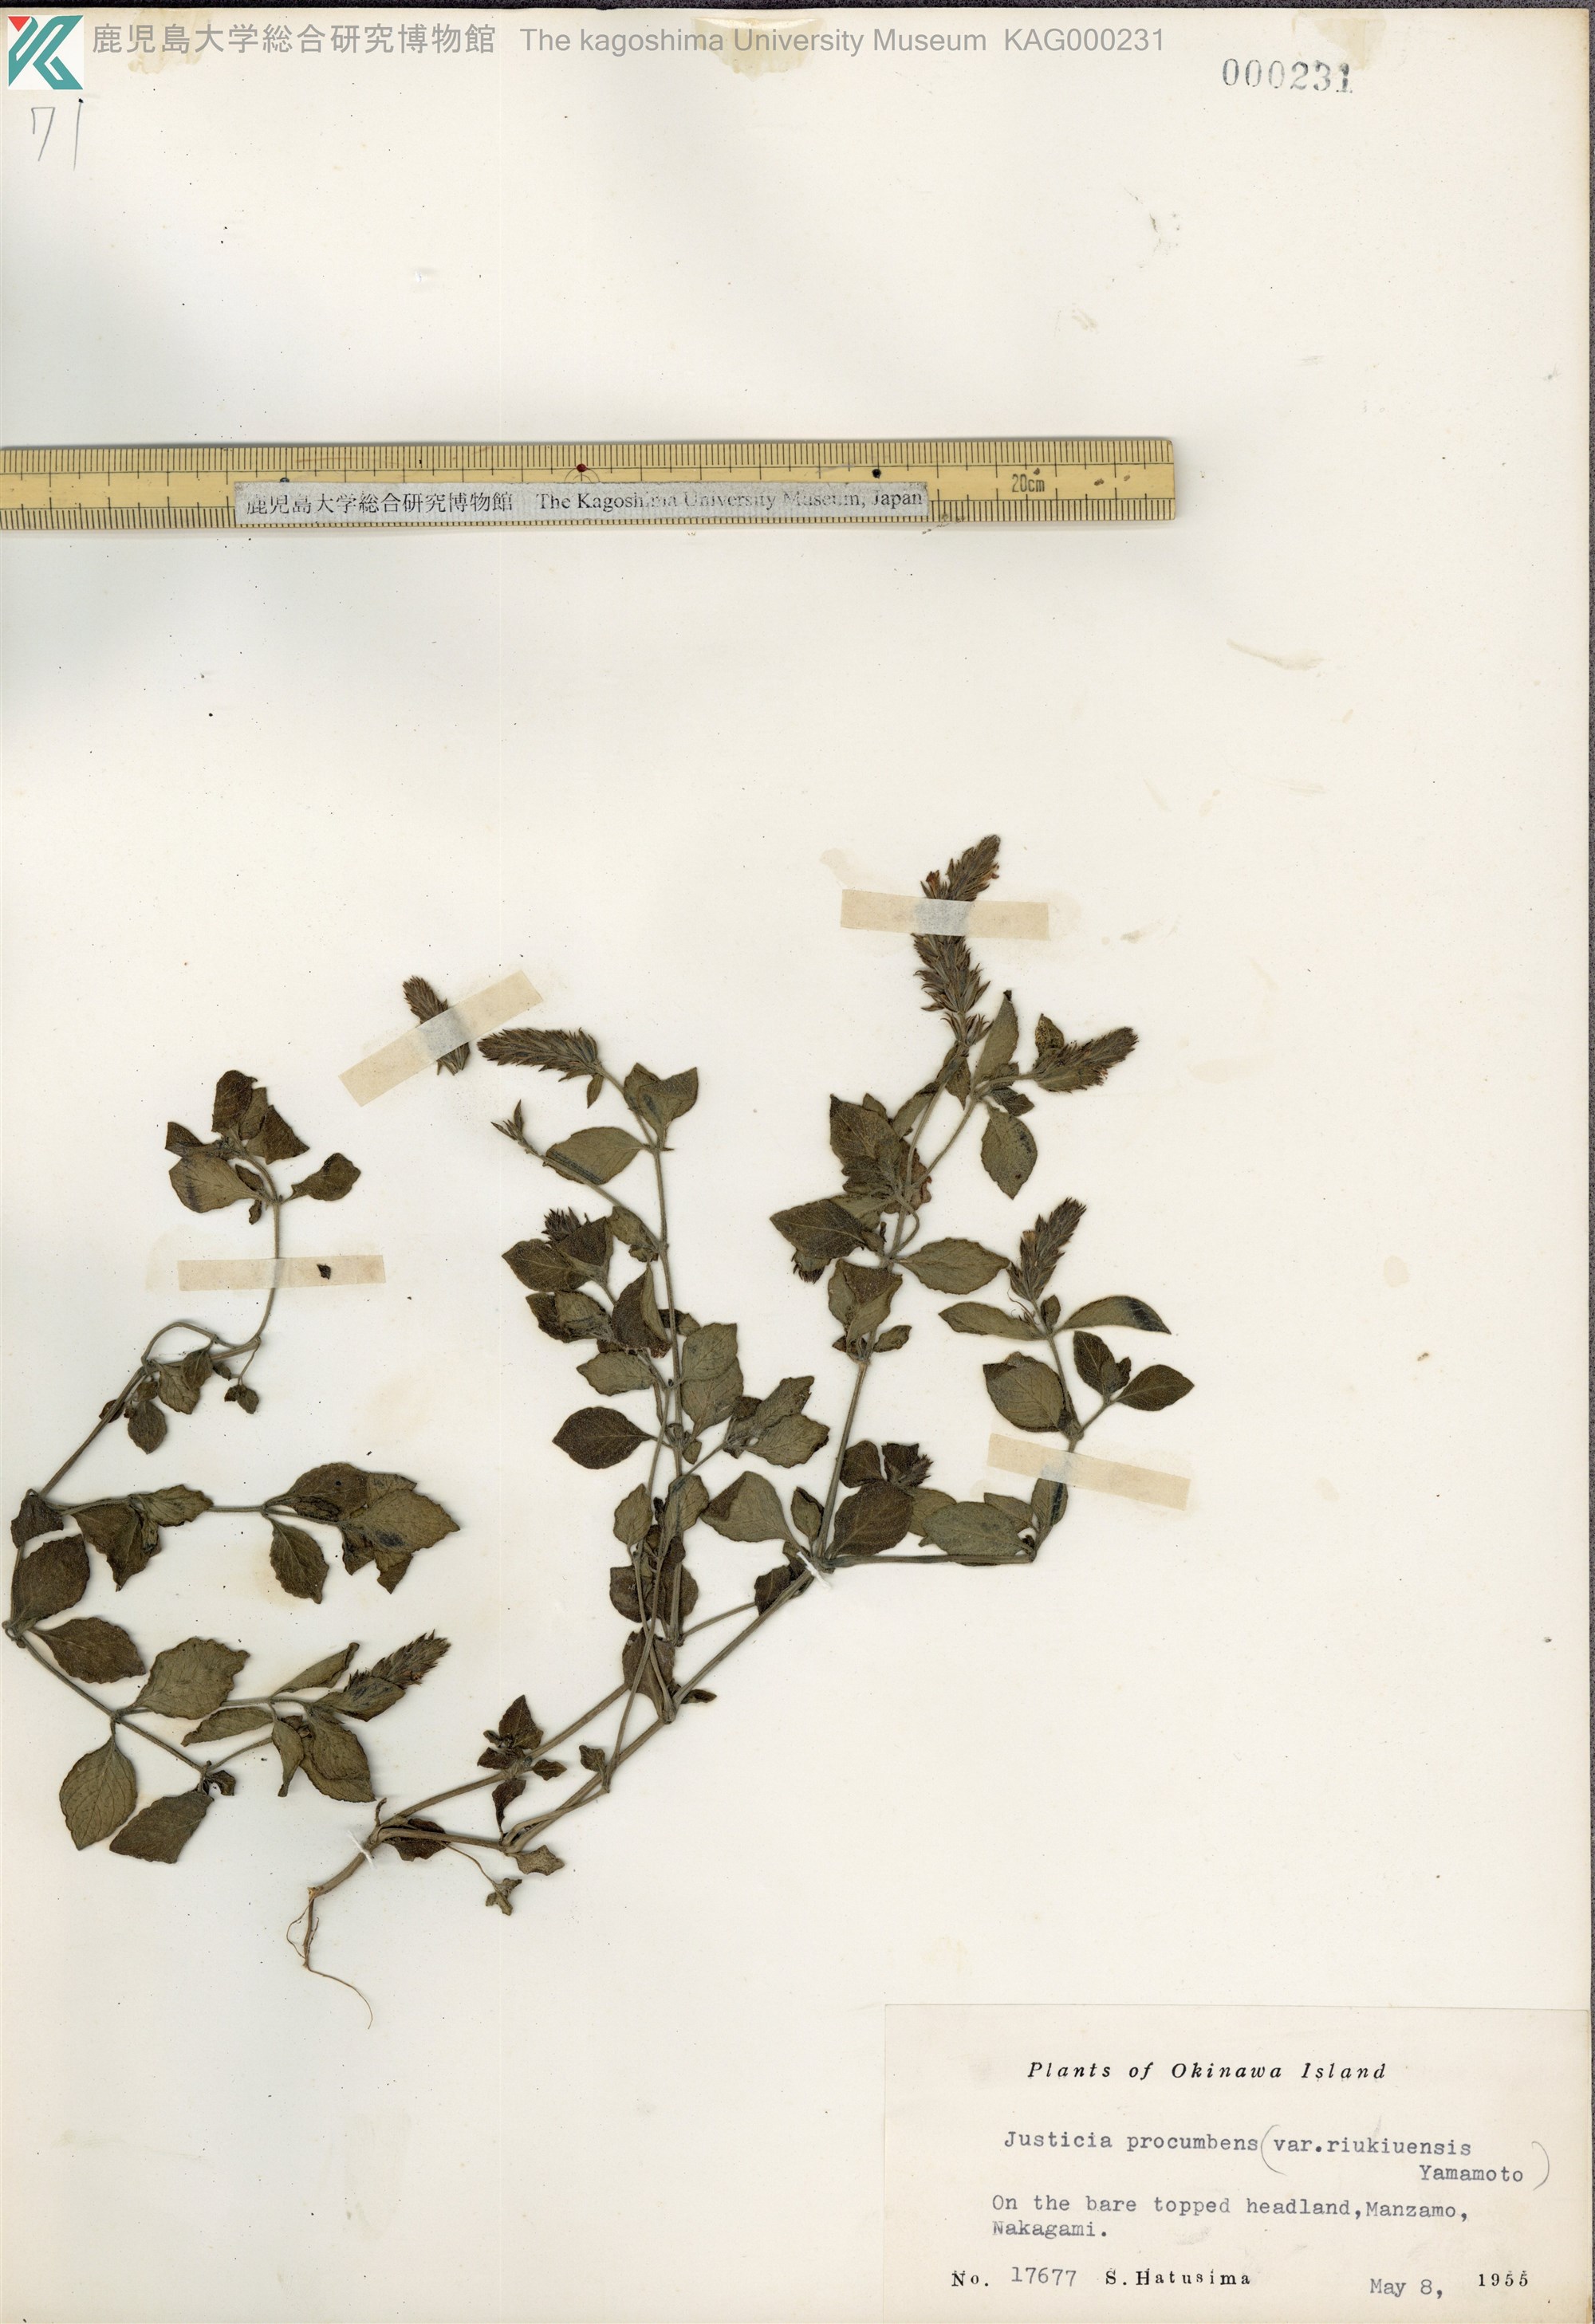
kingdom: Plantae
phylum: Tracheophyta
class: Magnoliopsida
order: Lamiales
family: Acanthaceae
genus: Rostellularia
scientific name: Rostellularia procumbens
